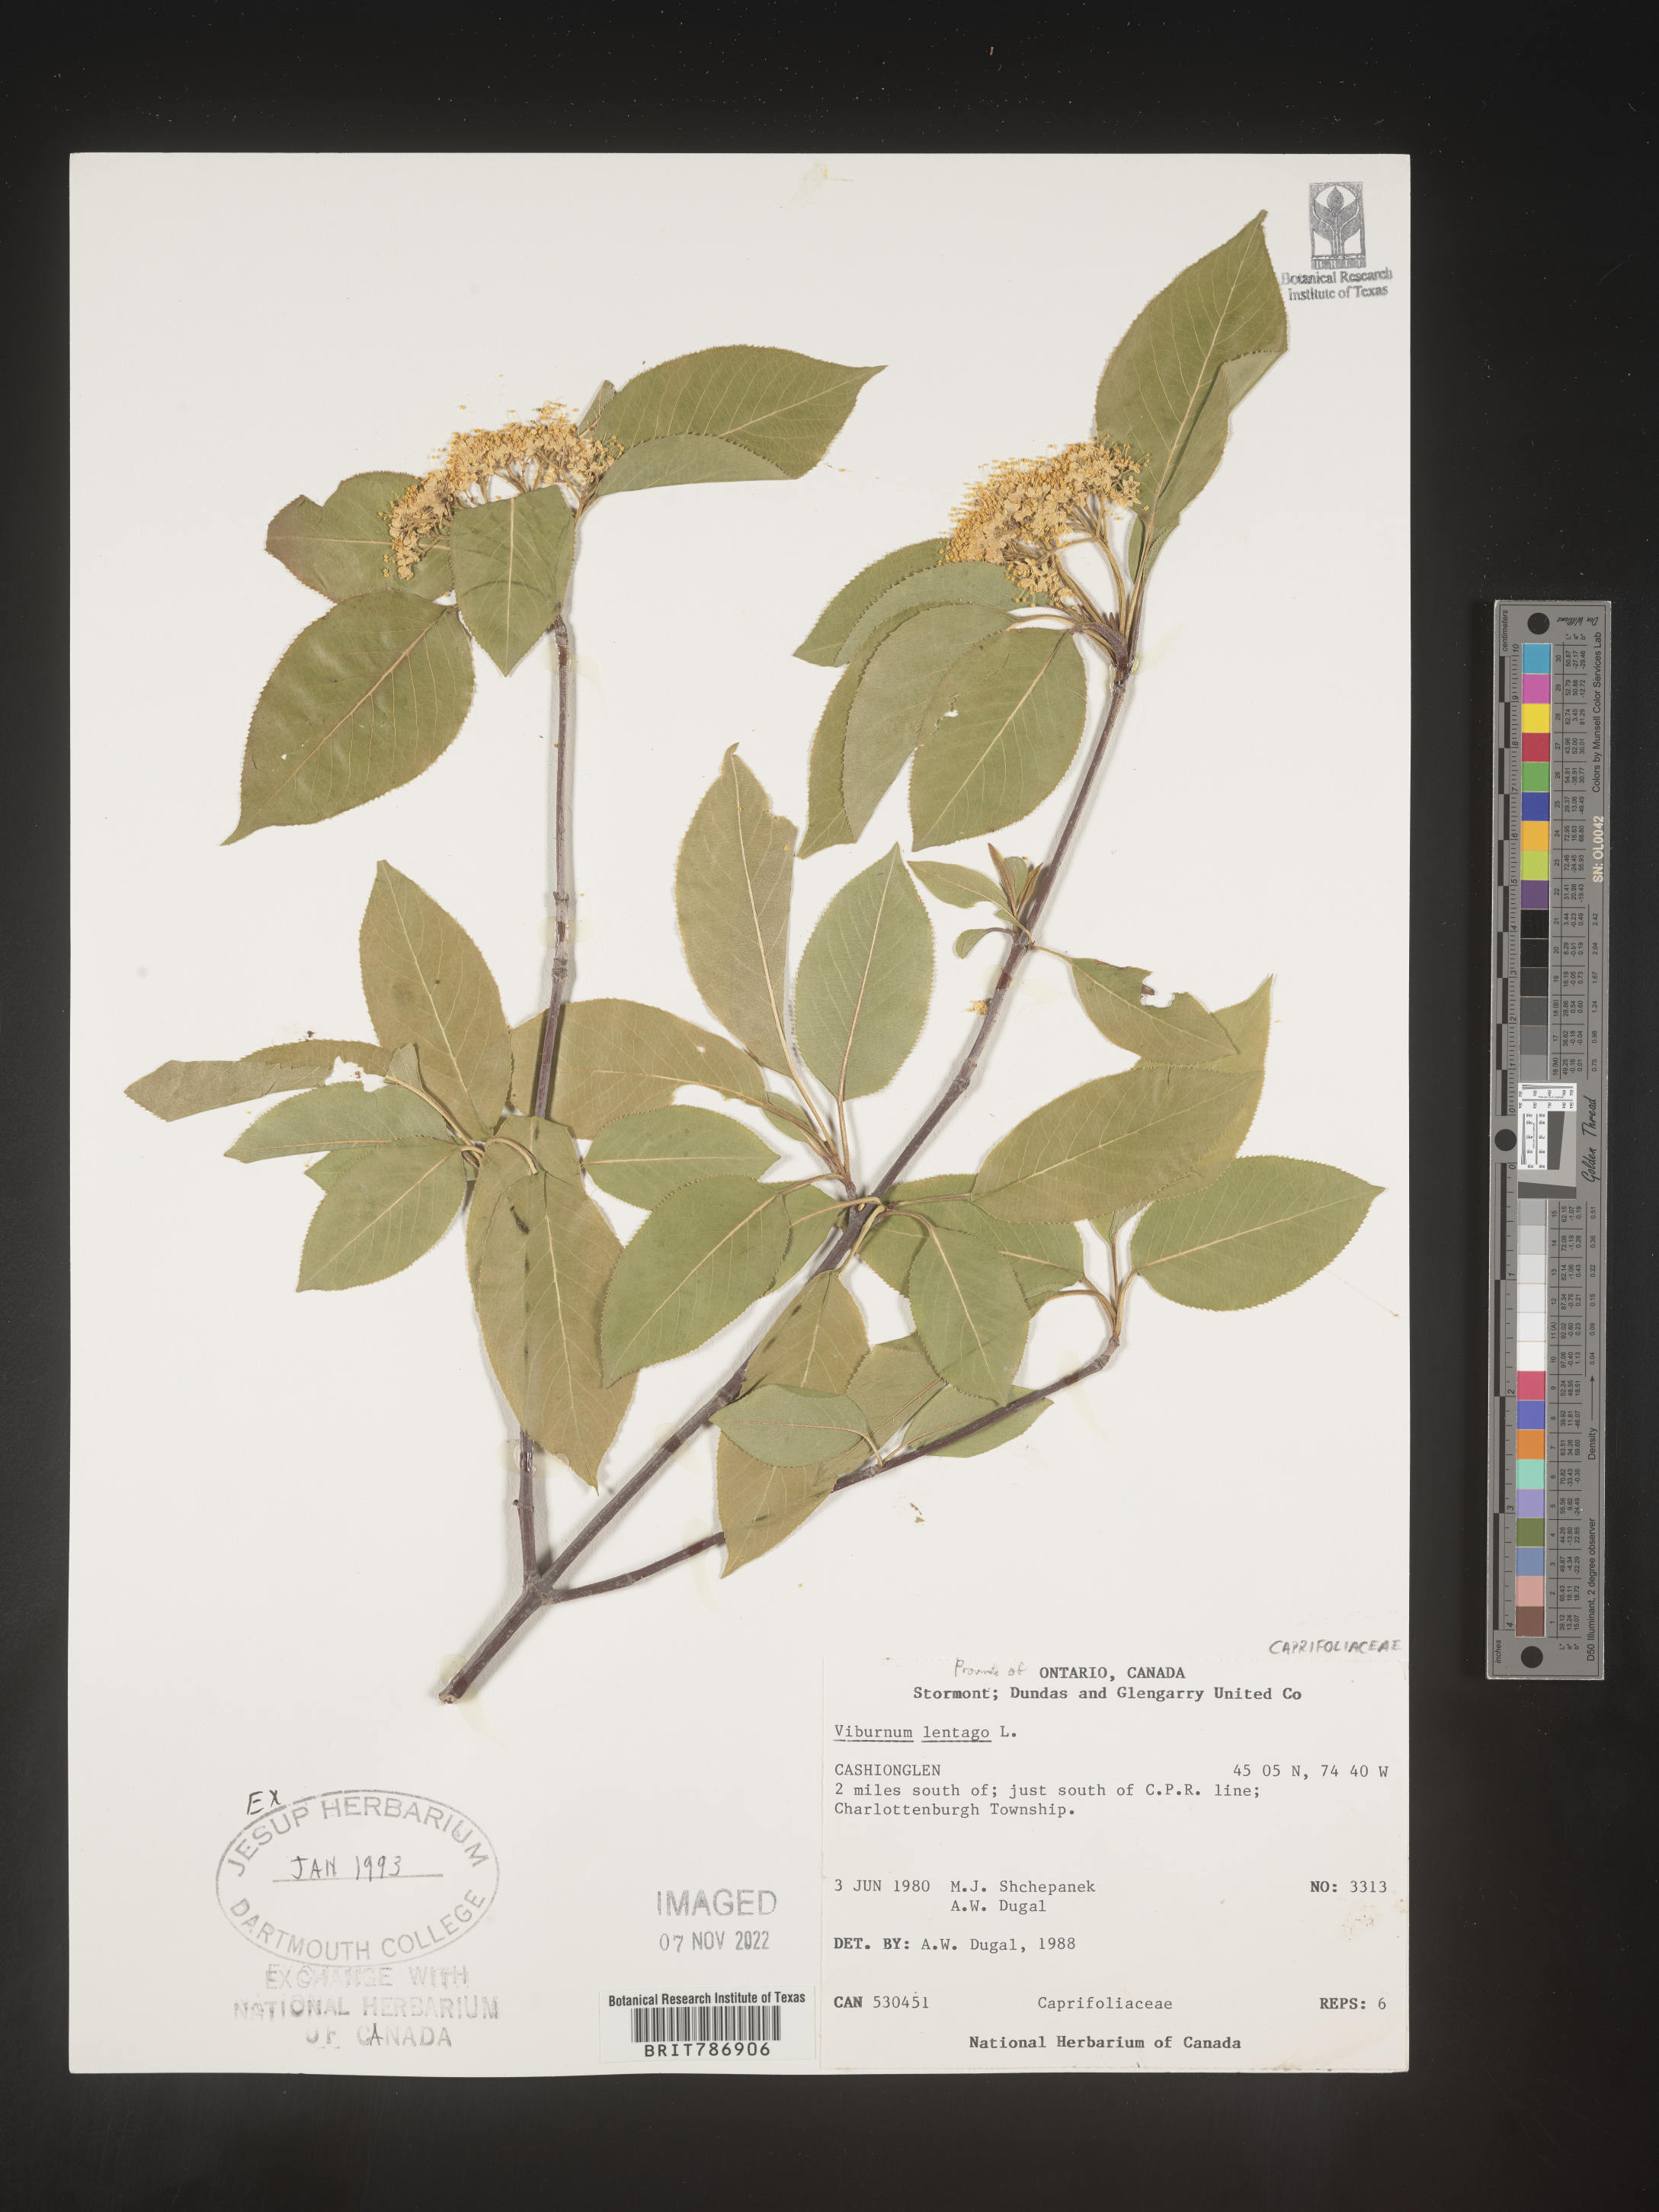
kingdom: Plantae
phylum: Tracheophyta
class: Magnoliopsida
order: Dipsacales
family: Viburnaceae
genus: Viburnum
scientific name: Viburnum lentago
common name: Black haw
